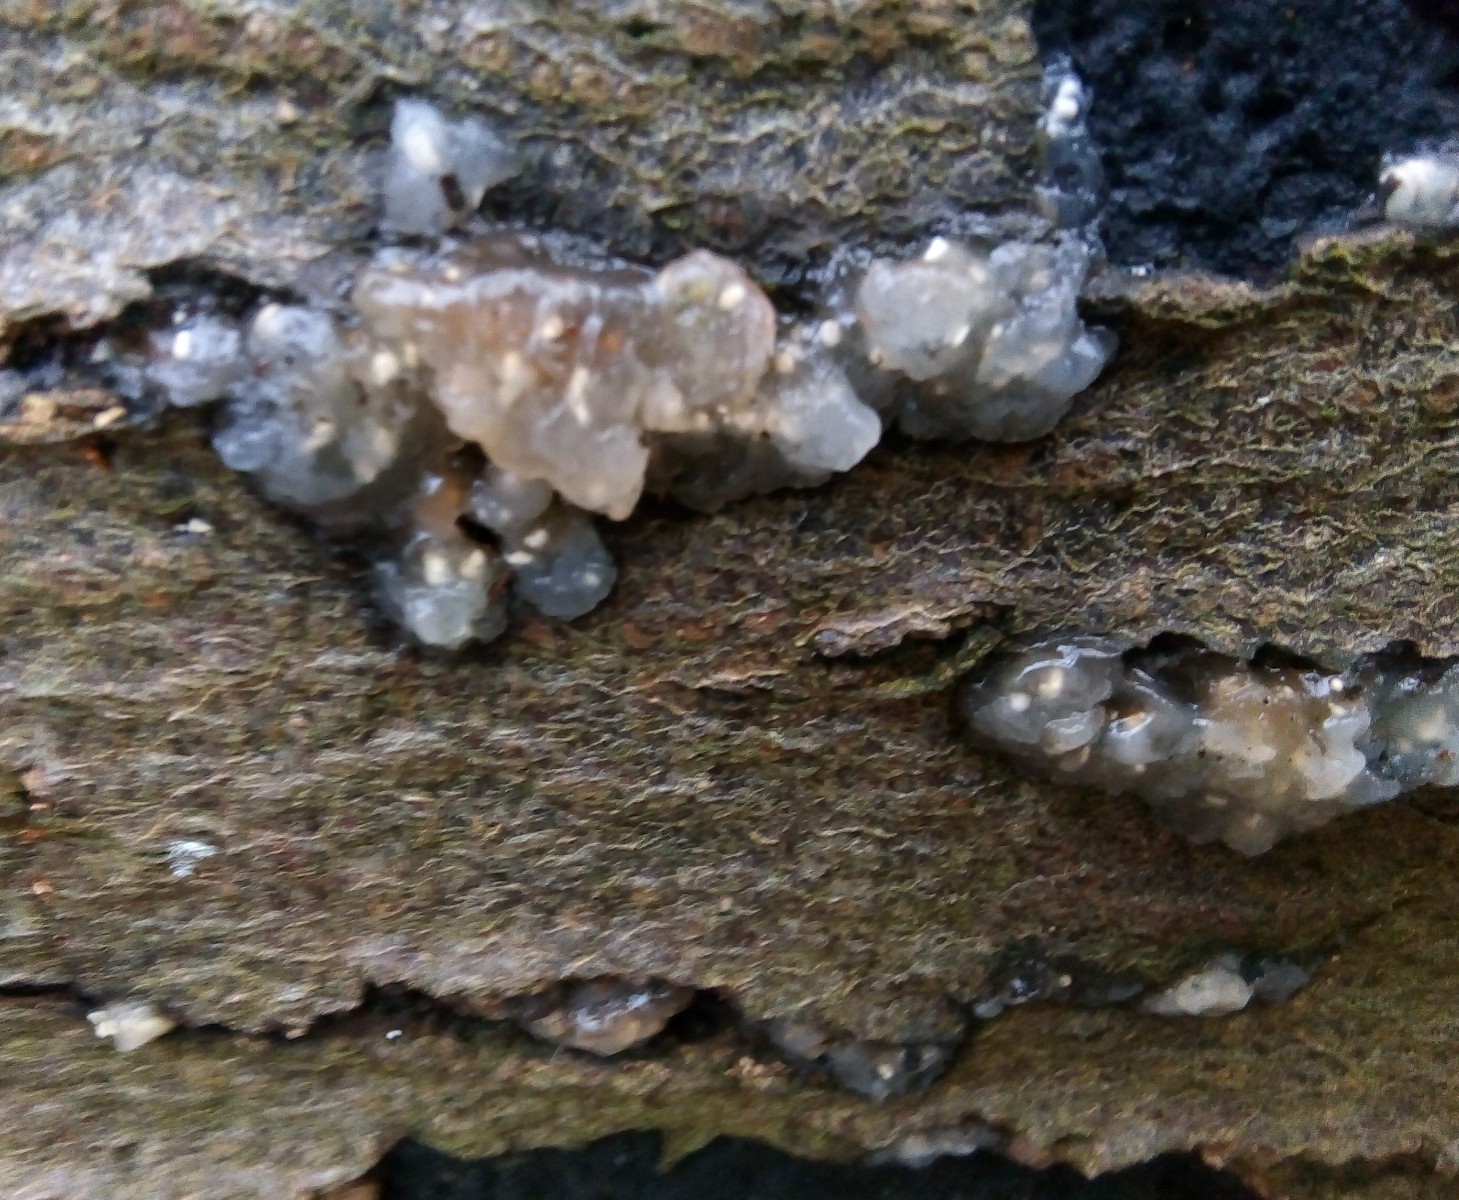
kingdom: Fungi
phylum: Basidiomycota
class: Agaricomycetes
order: Auriculariales
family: Hyaloriaceae
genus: Myxarium
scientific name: Myxarium nucleatum
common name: klar bævretop
